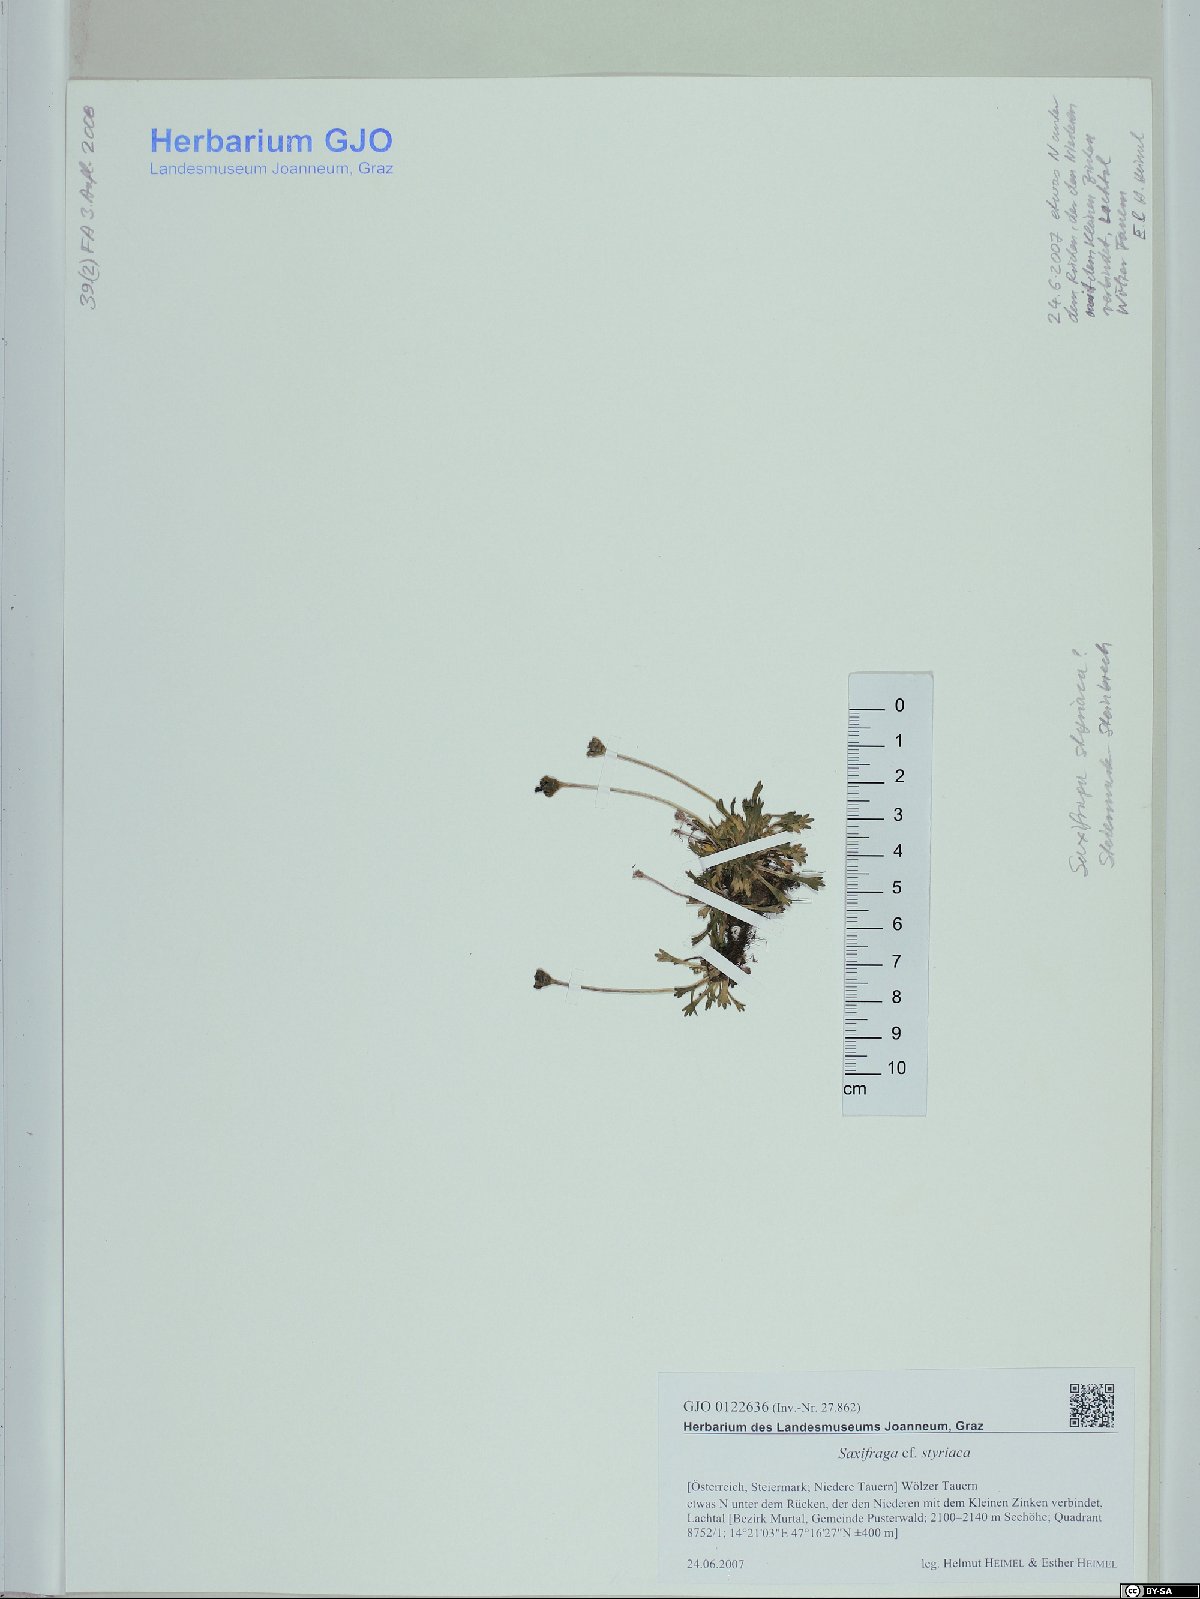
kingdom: Plantae
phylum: Tracheophyta
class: Magnoliopsida
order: Saxifragales
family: Saxifragaceae
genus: Saxifraga
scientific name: Saxifraga styriaca
